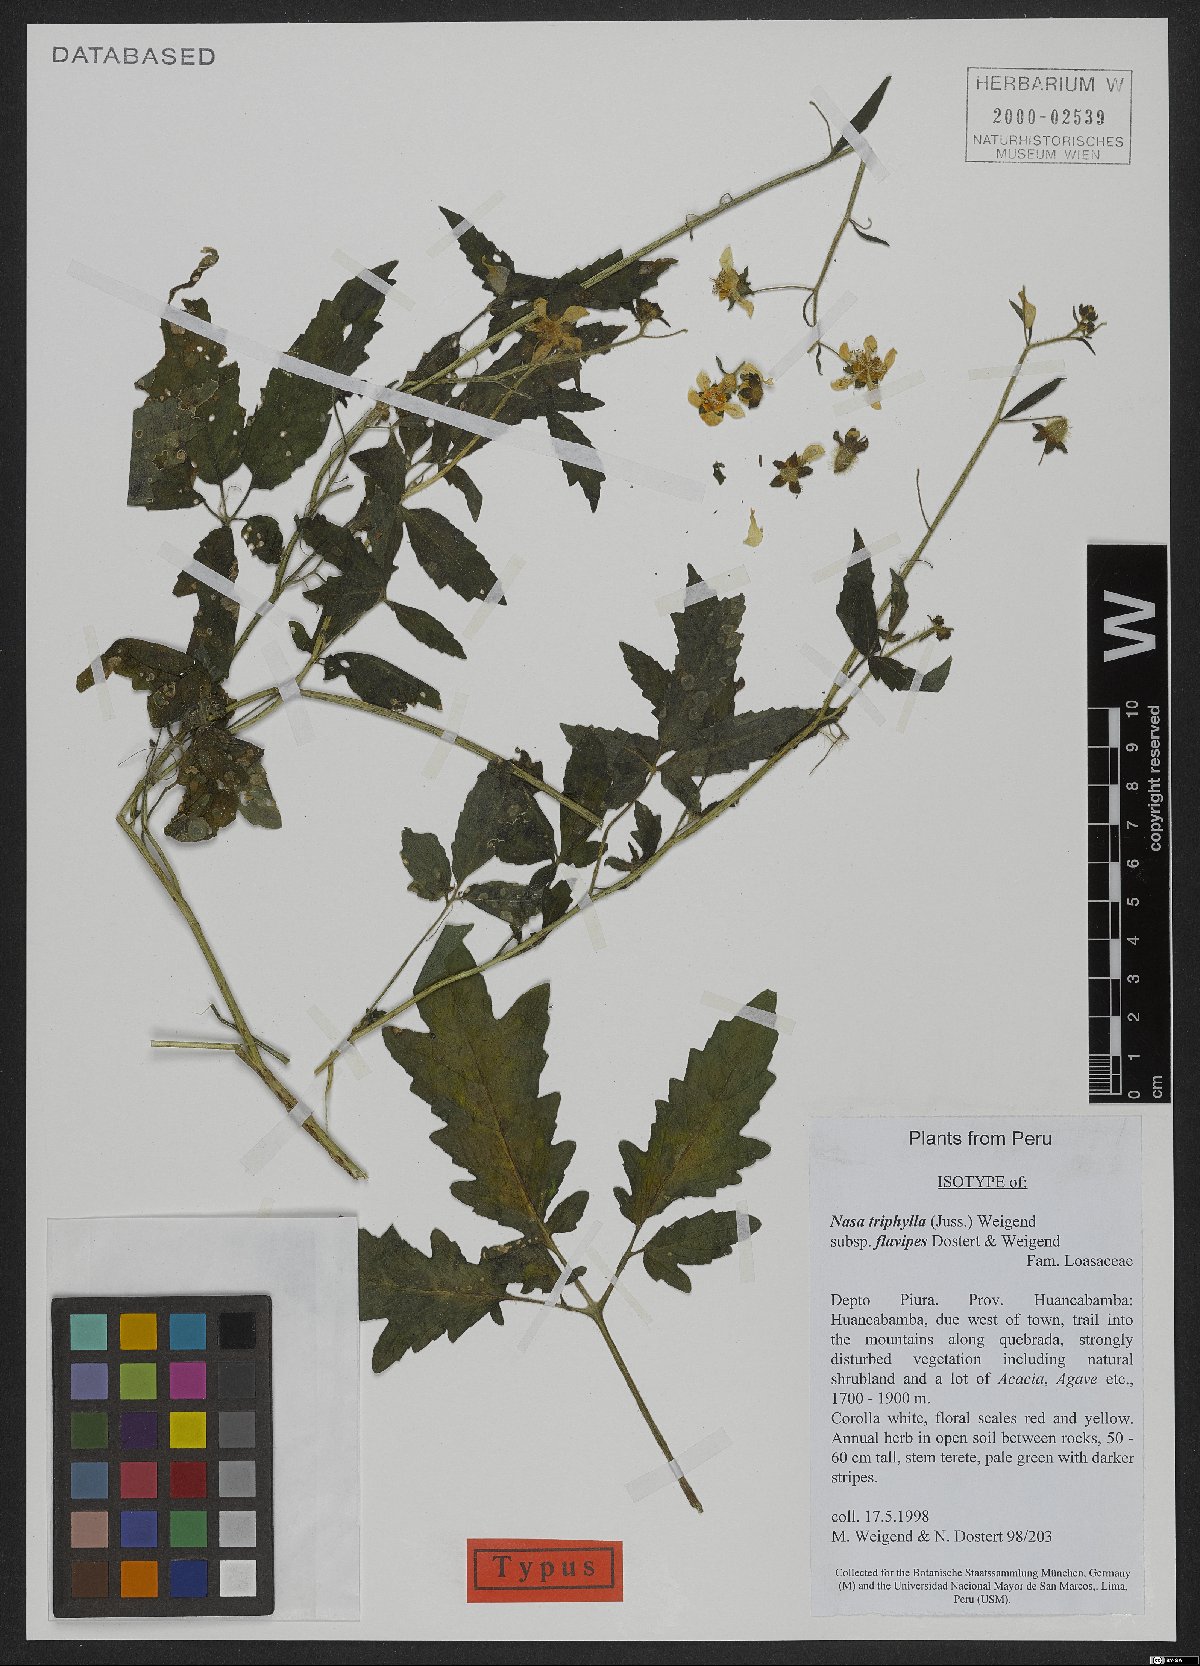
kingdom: Plantae
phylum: Tracheophyta
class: Magnoliopsida
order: Cornales
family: Loasaceae
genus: Nasa
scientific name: Nasa triphylla
